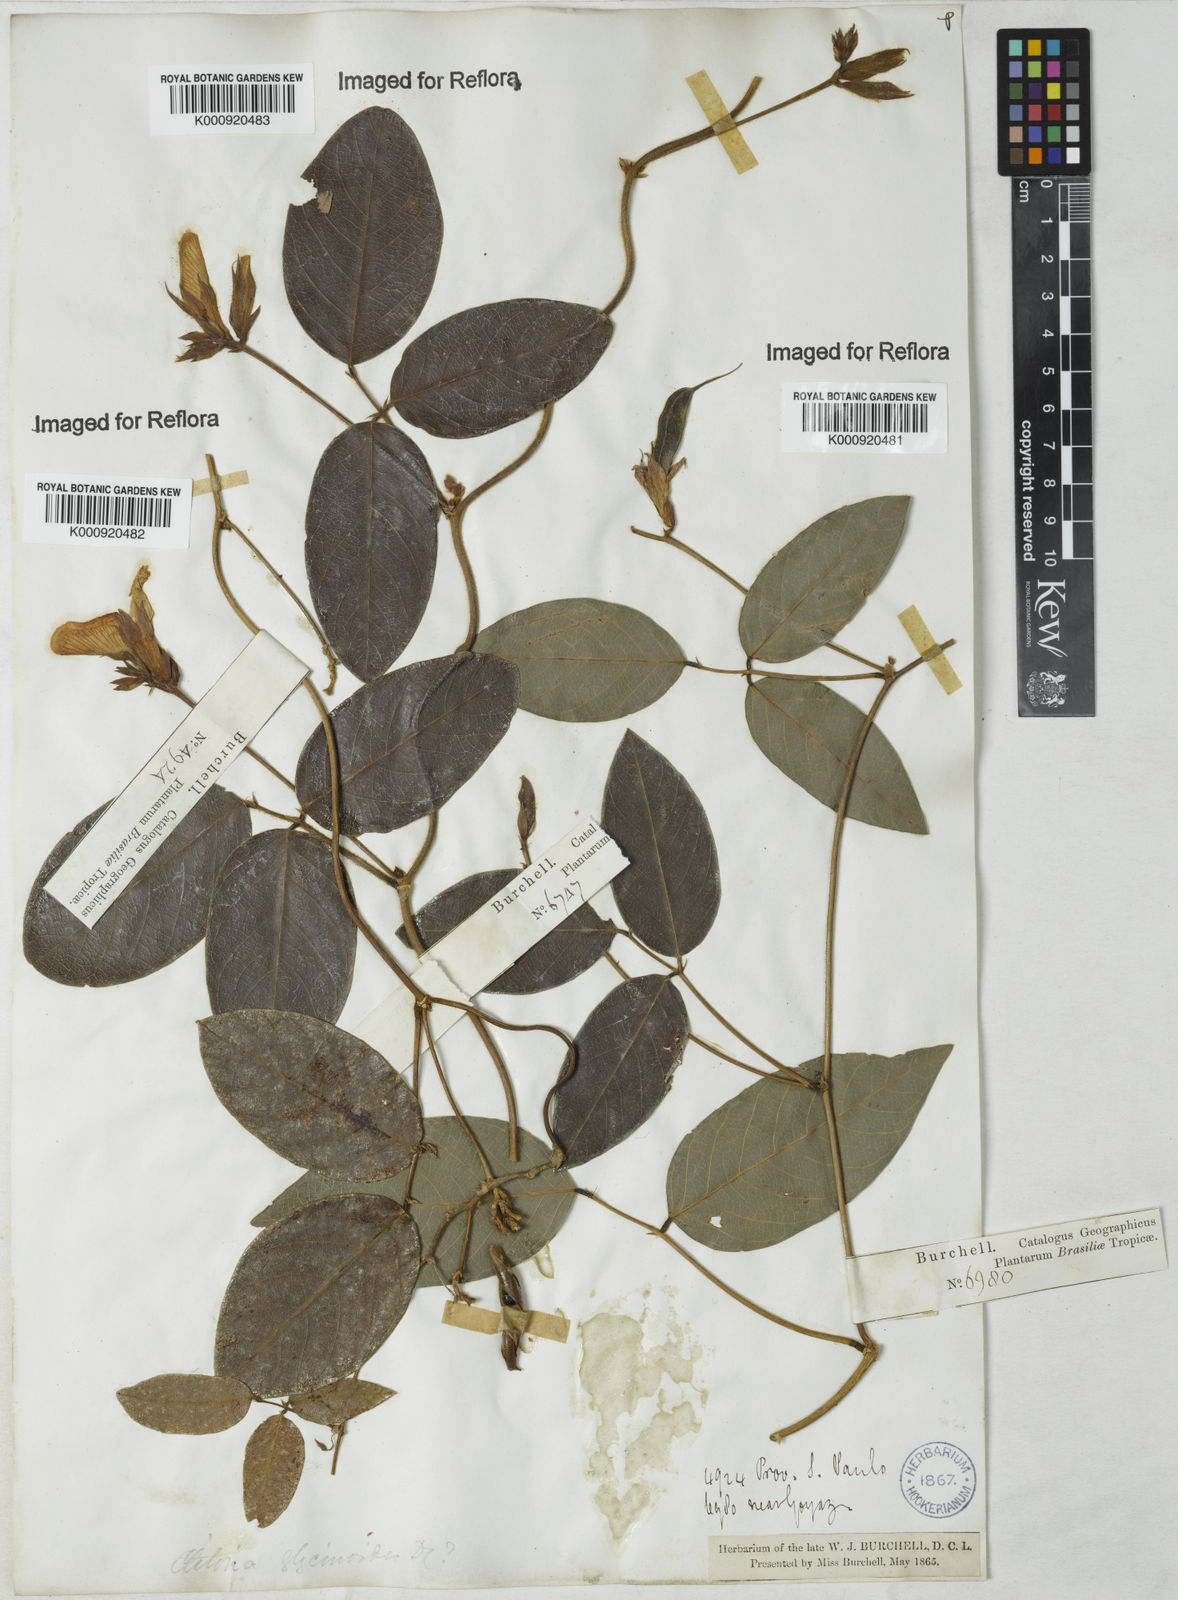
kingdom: Plantae
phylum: Tracheophyta
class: Magnoliopsida
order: Fabales
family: Fabaceae
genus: Clitoria
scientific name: Clitoria
